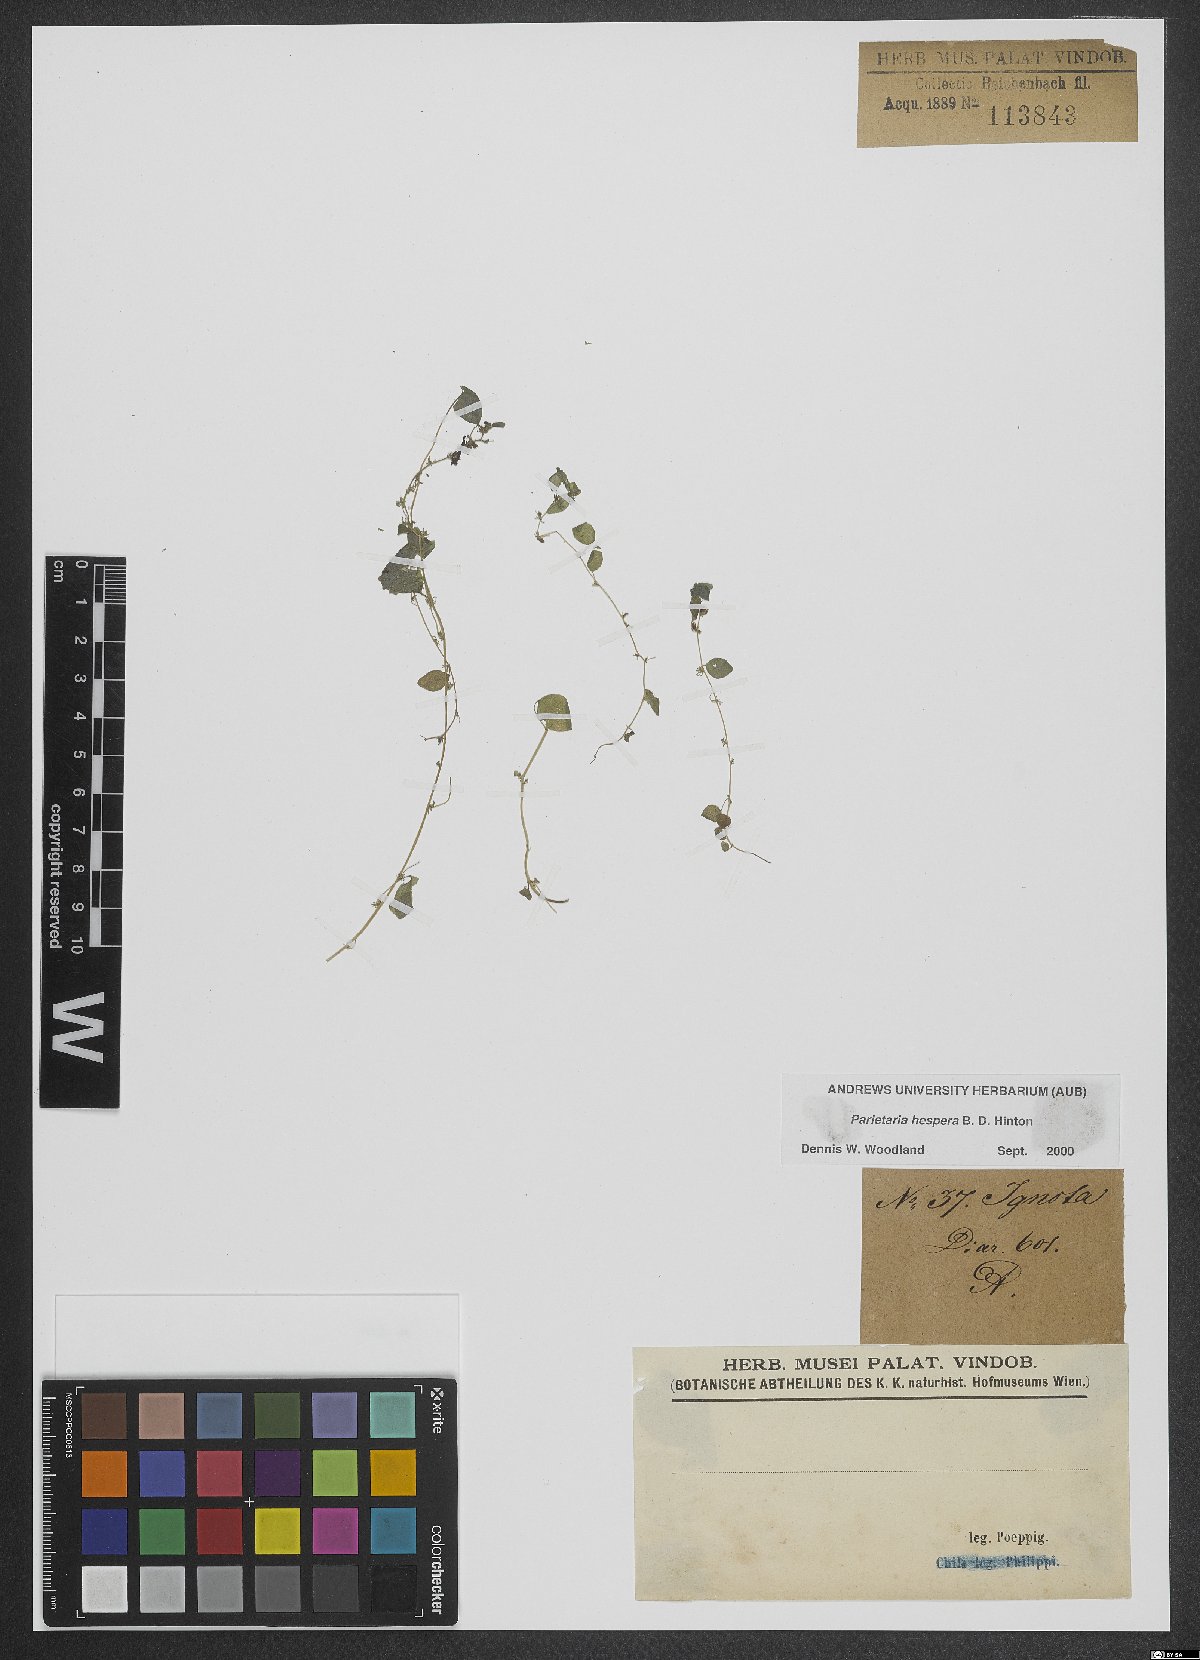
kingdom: Plantae
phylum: Tracheophyta
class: Magnoliopsida
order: Rosales
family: Urticaceae
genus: Parietaria
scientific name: Parietaria hespera
